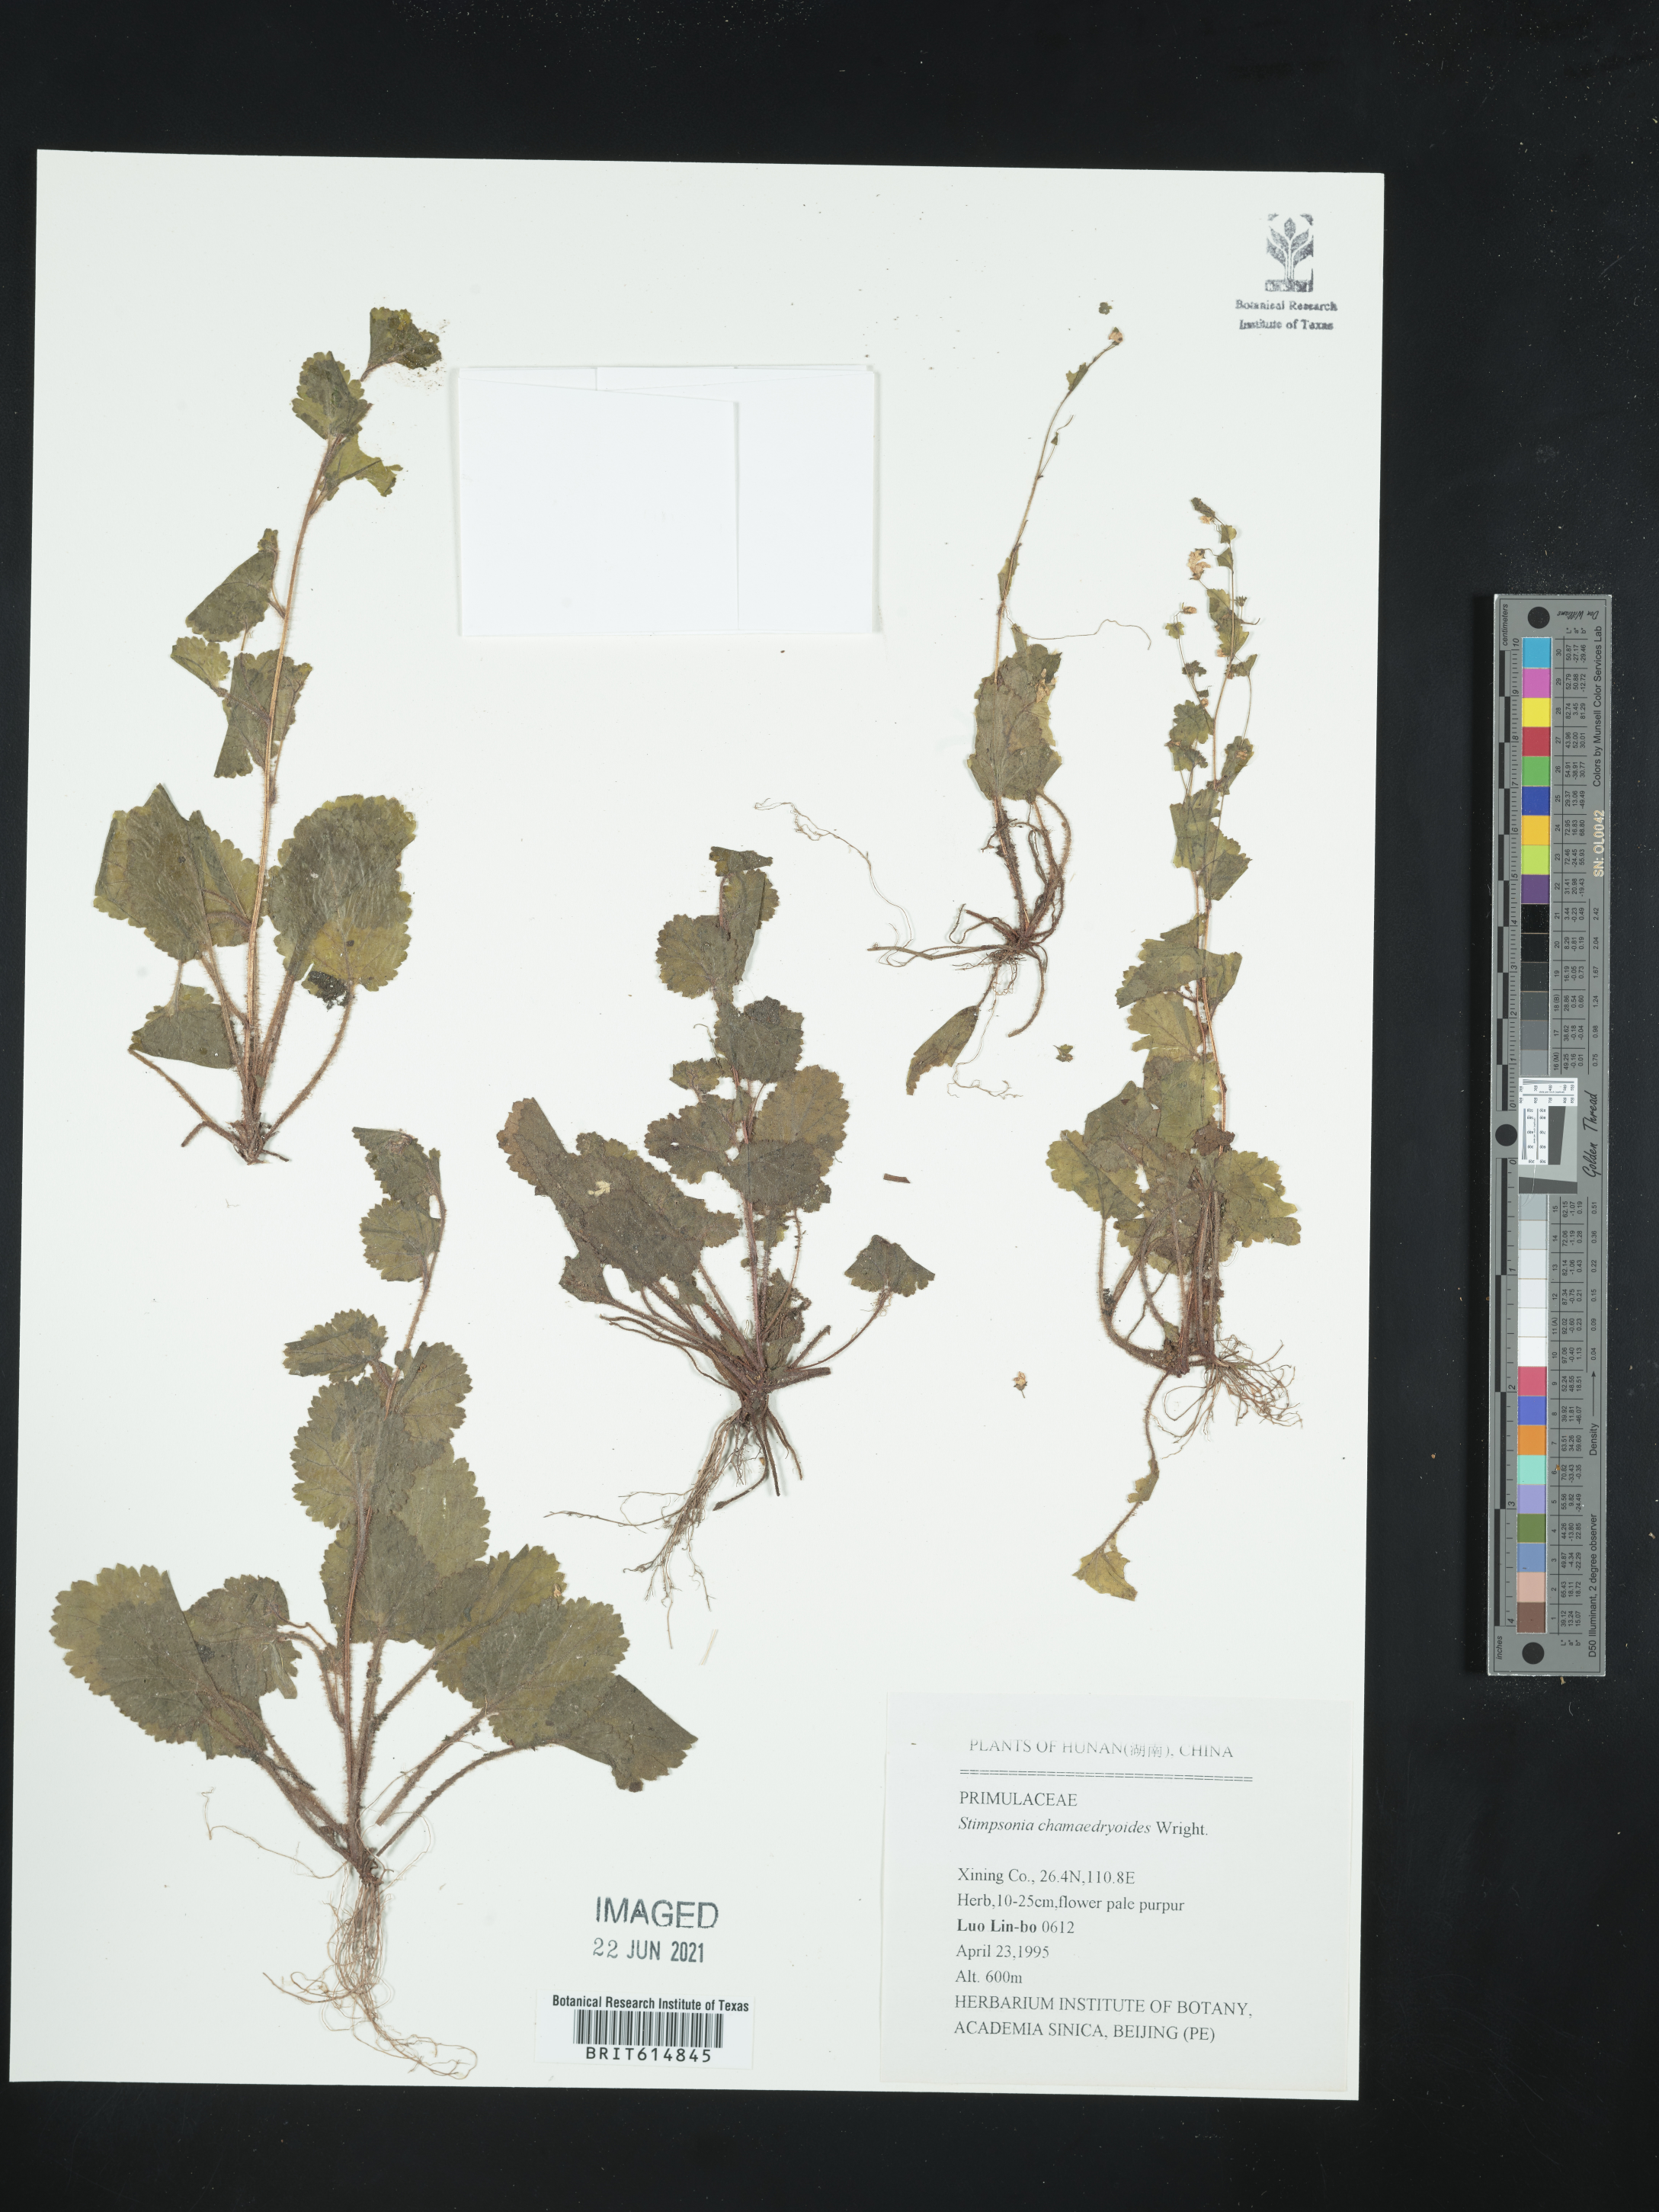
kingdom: Plantae
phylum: Tracheophyta
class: Magnoliopsida
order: Ericales
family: Primulaceae
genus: Stimpsonia
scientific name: Stimpsonia chamaedryoides
